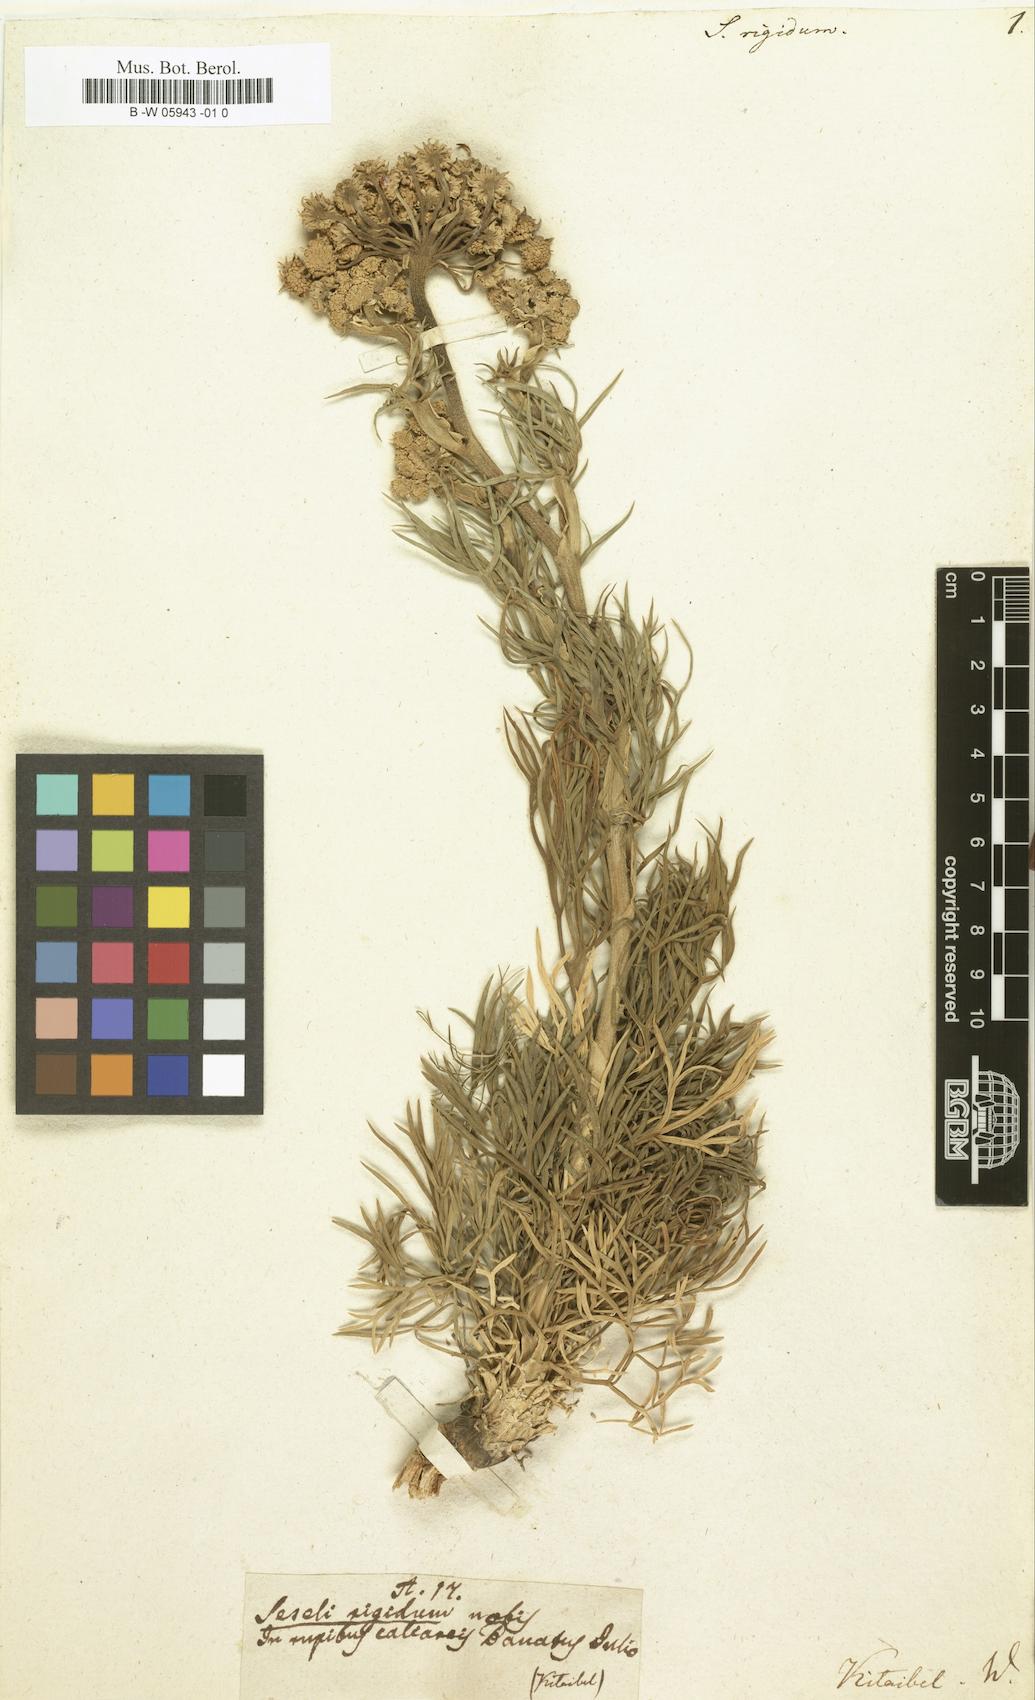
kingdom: Plantae
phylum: Tracheophyta
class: Magnoliopsida
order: Apiales
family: Apiaceae
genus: Seseli
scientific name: Seseli rigidum
